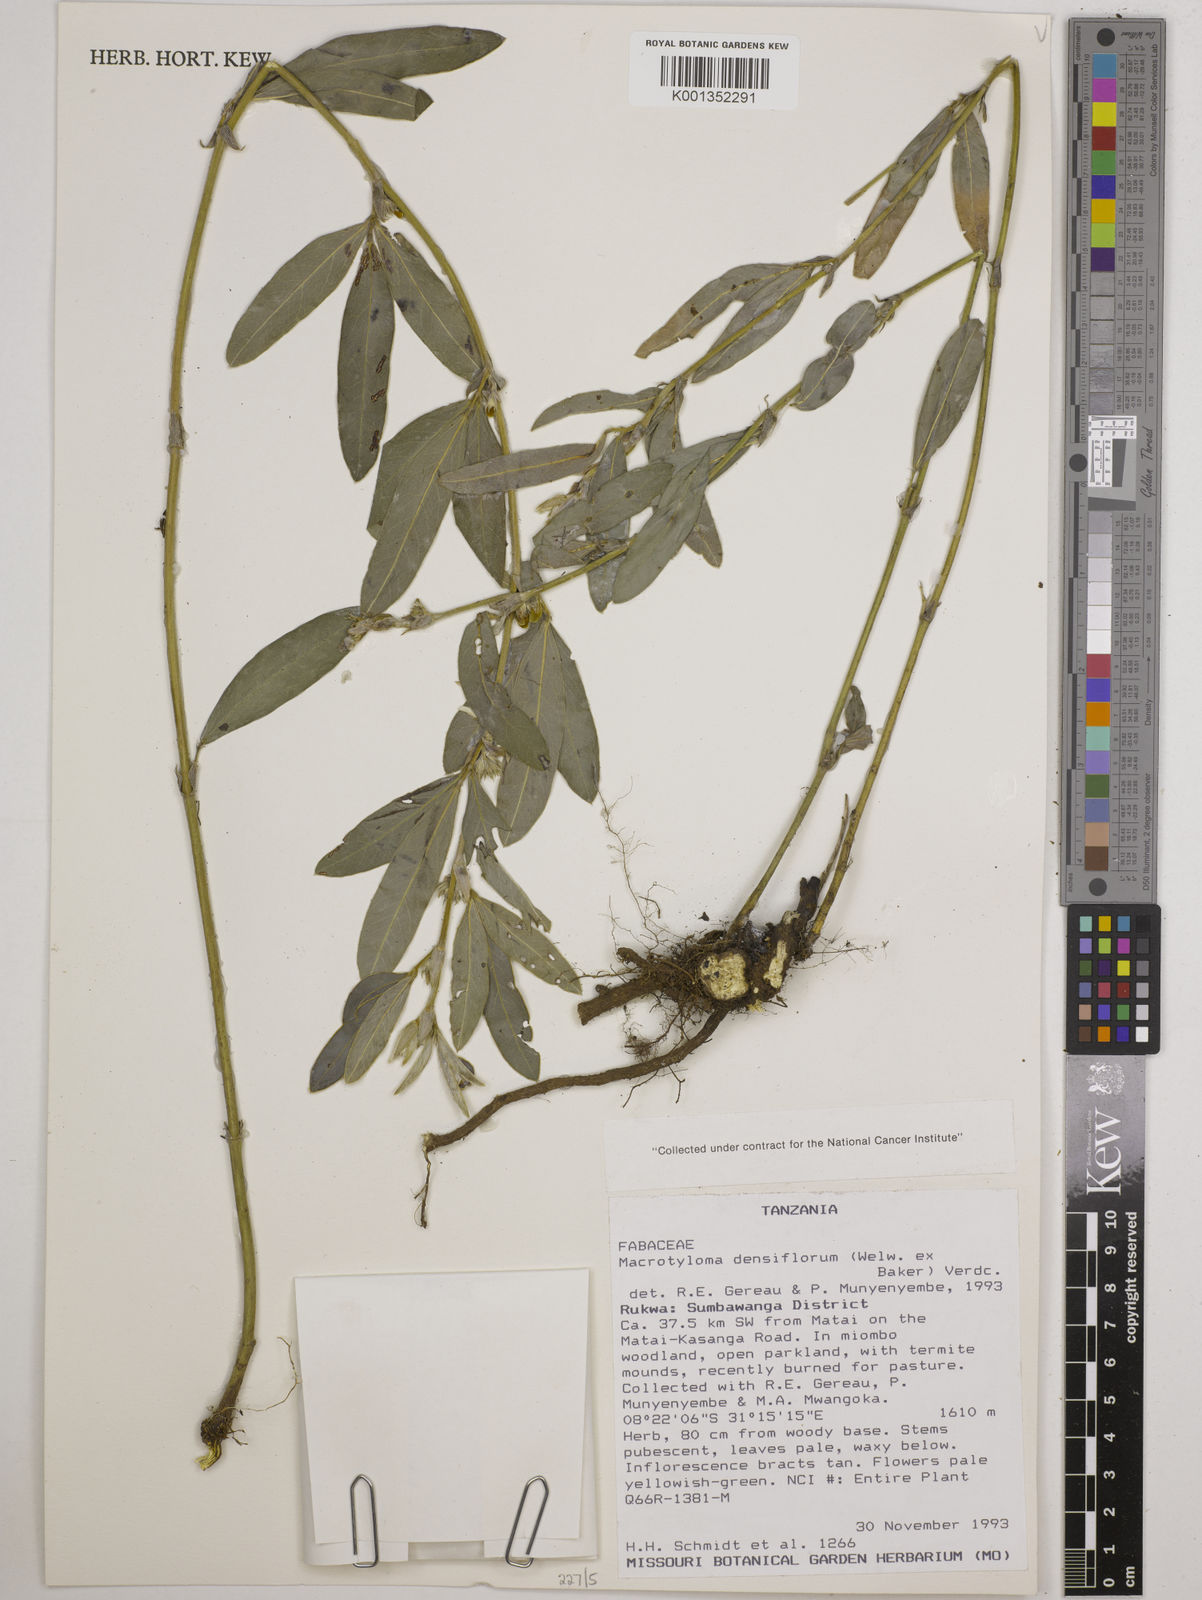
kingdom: Plantae
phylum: Tracheophyta
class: Magnoliopsida
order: Fabales
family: Fabaceae
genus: Macrotyloma
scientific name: Macrotyloma densiflorum
